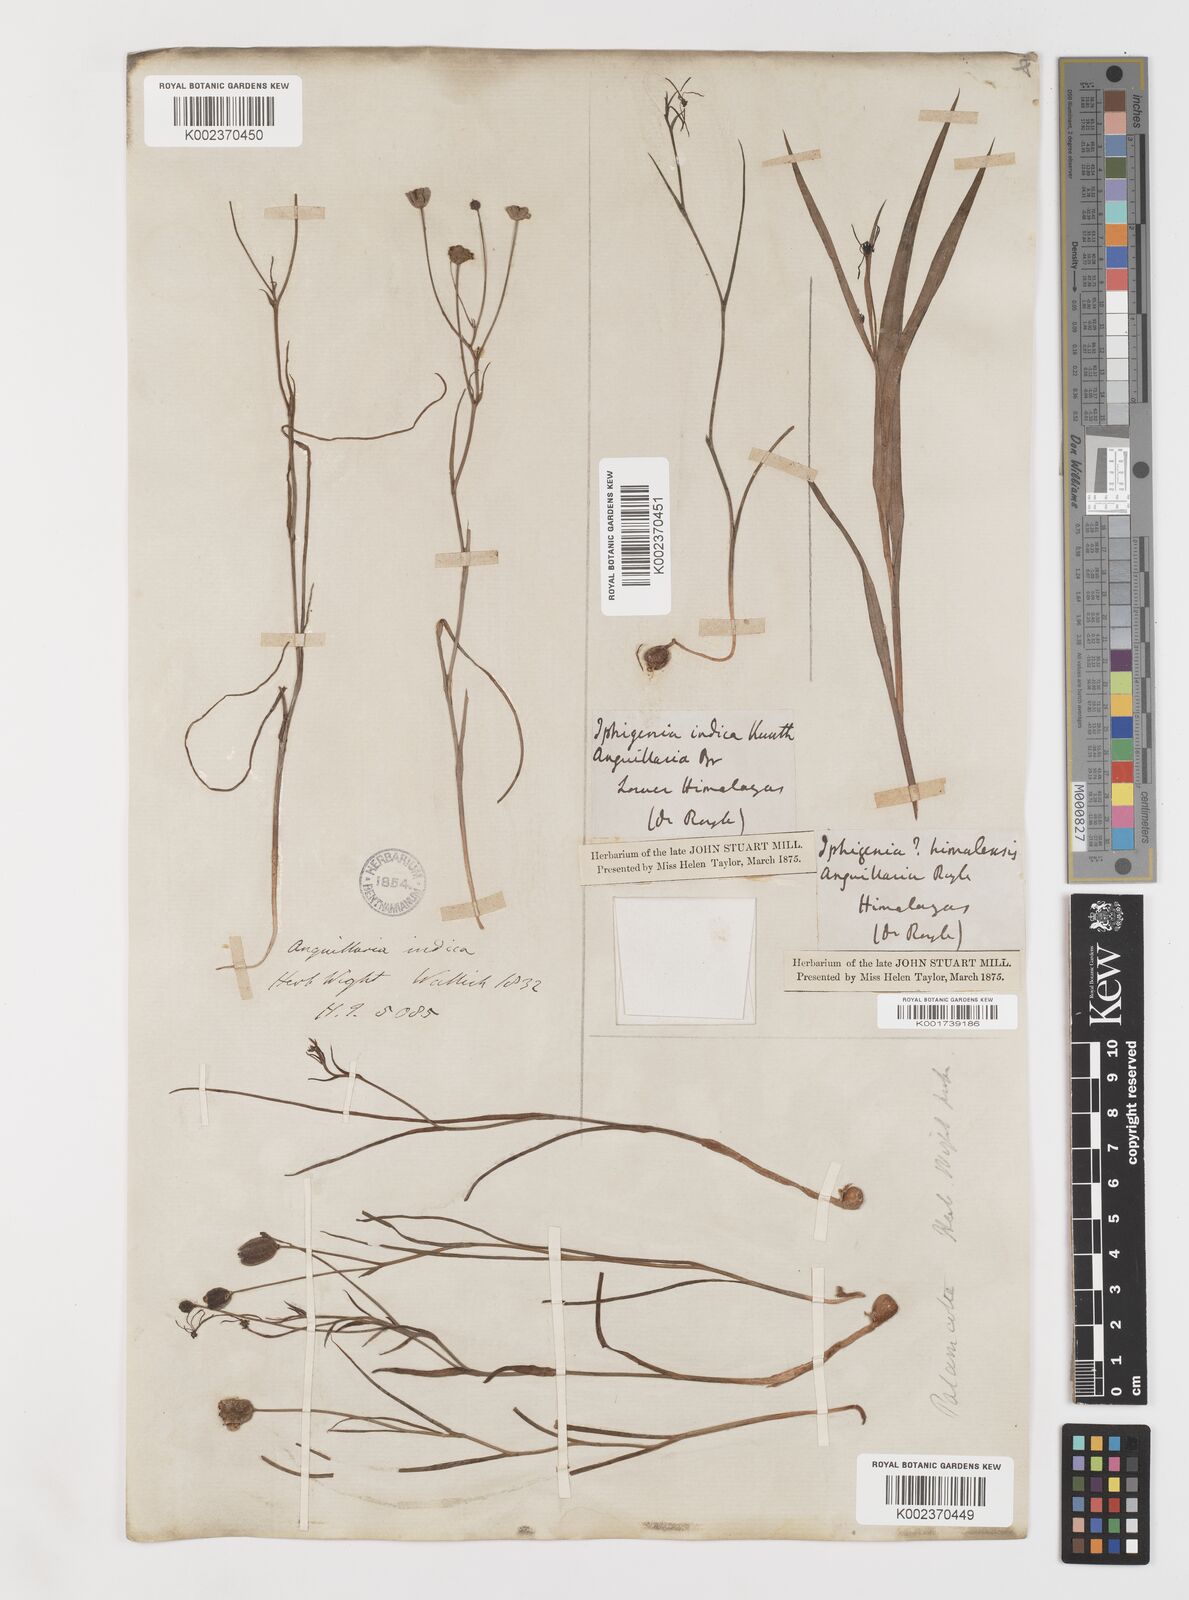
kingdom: Plantae
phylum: Tracheophyta
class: Liliopsida
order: Liliales
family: Colchicaceae
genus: Iphigenia
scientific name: Iphigenia indica
